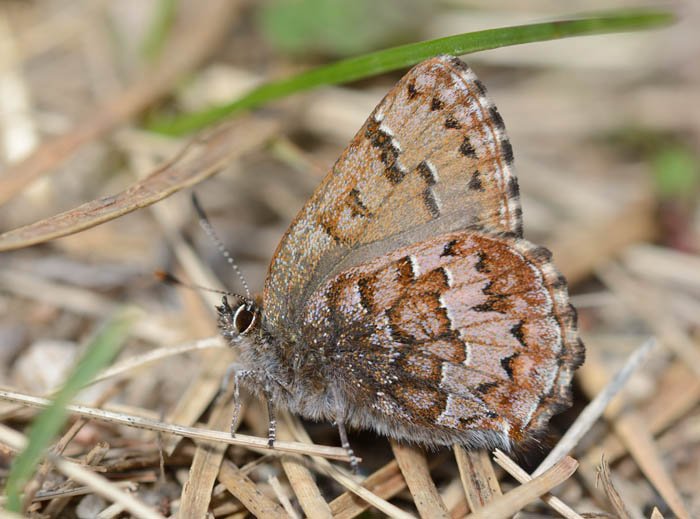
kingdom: Animalia
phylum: Arthropoda
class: Insecta
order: Lepidoptera
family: Lycaenidae
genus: Incisalia
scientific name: Incisalia niphon
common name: Eastern Pine Elfin
